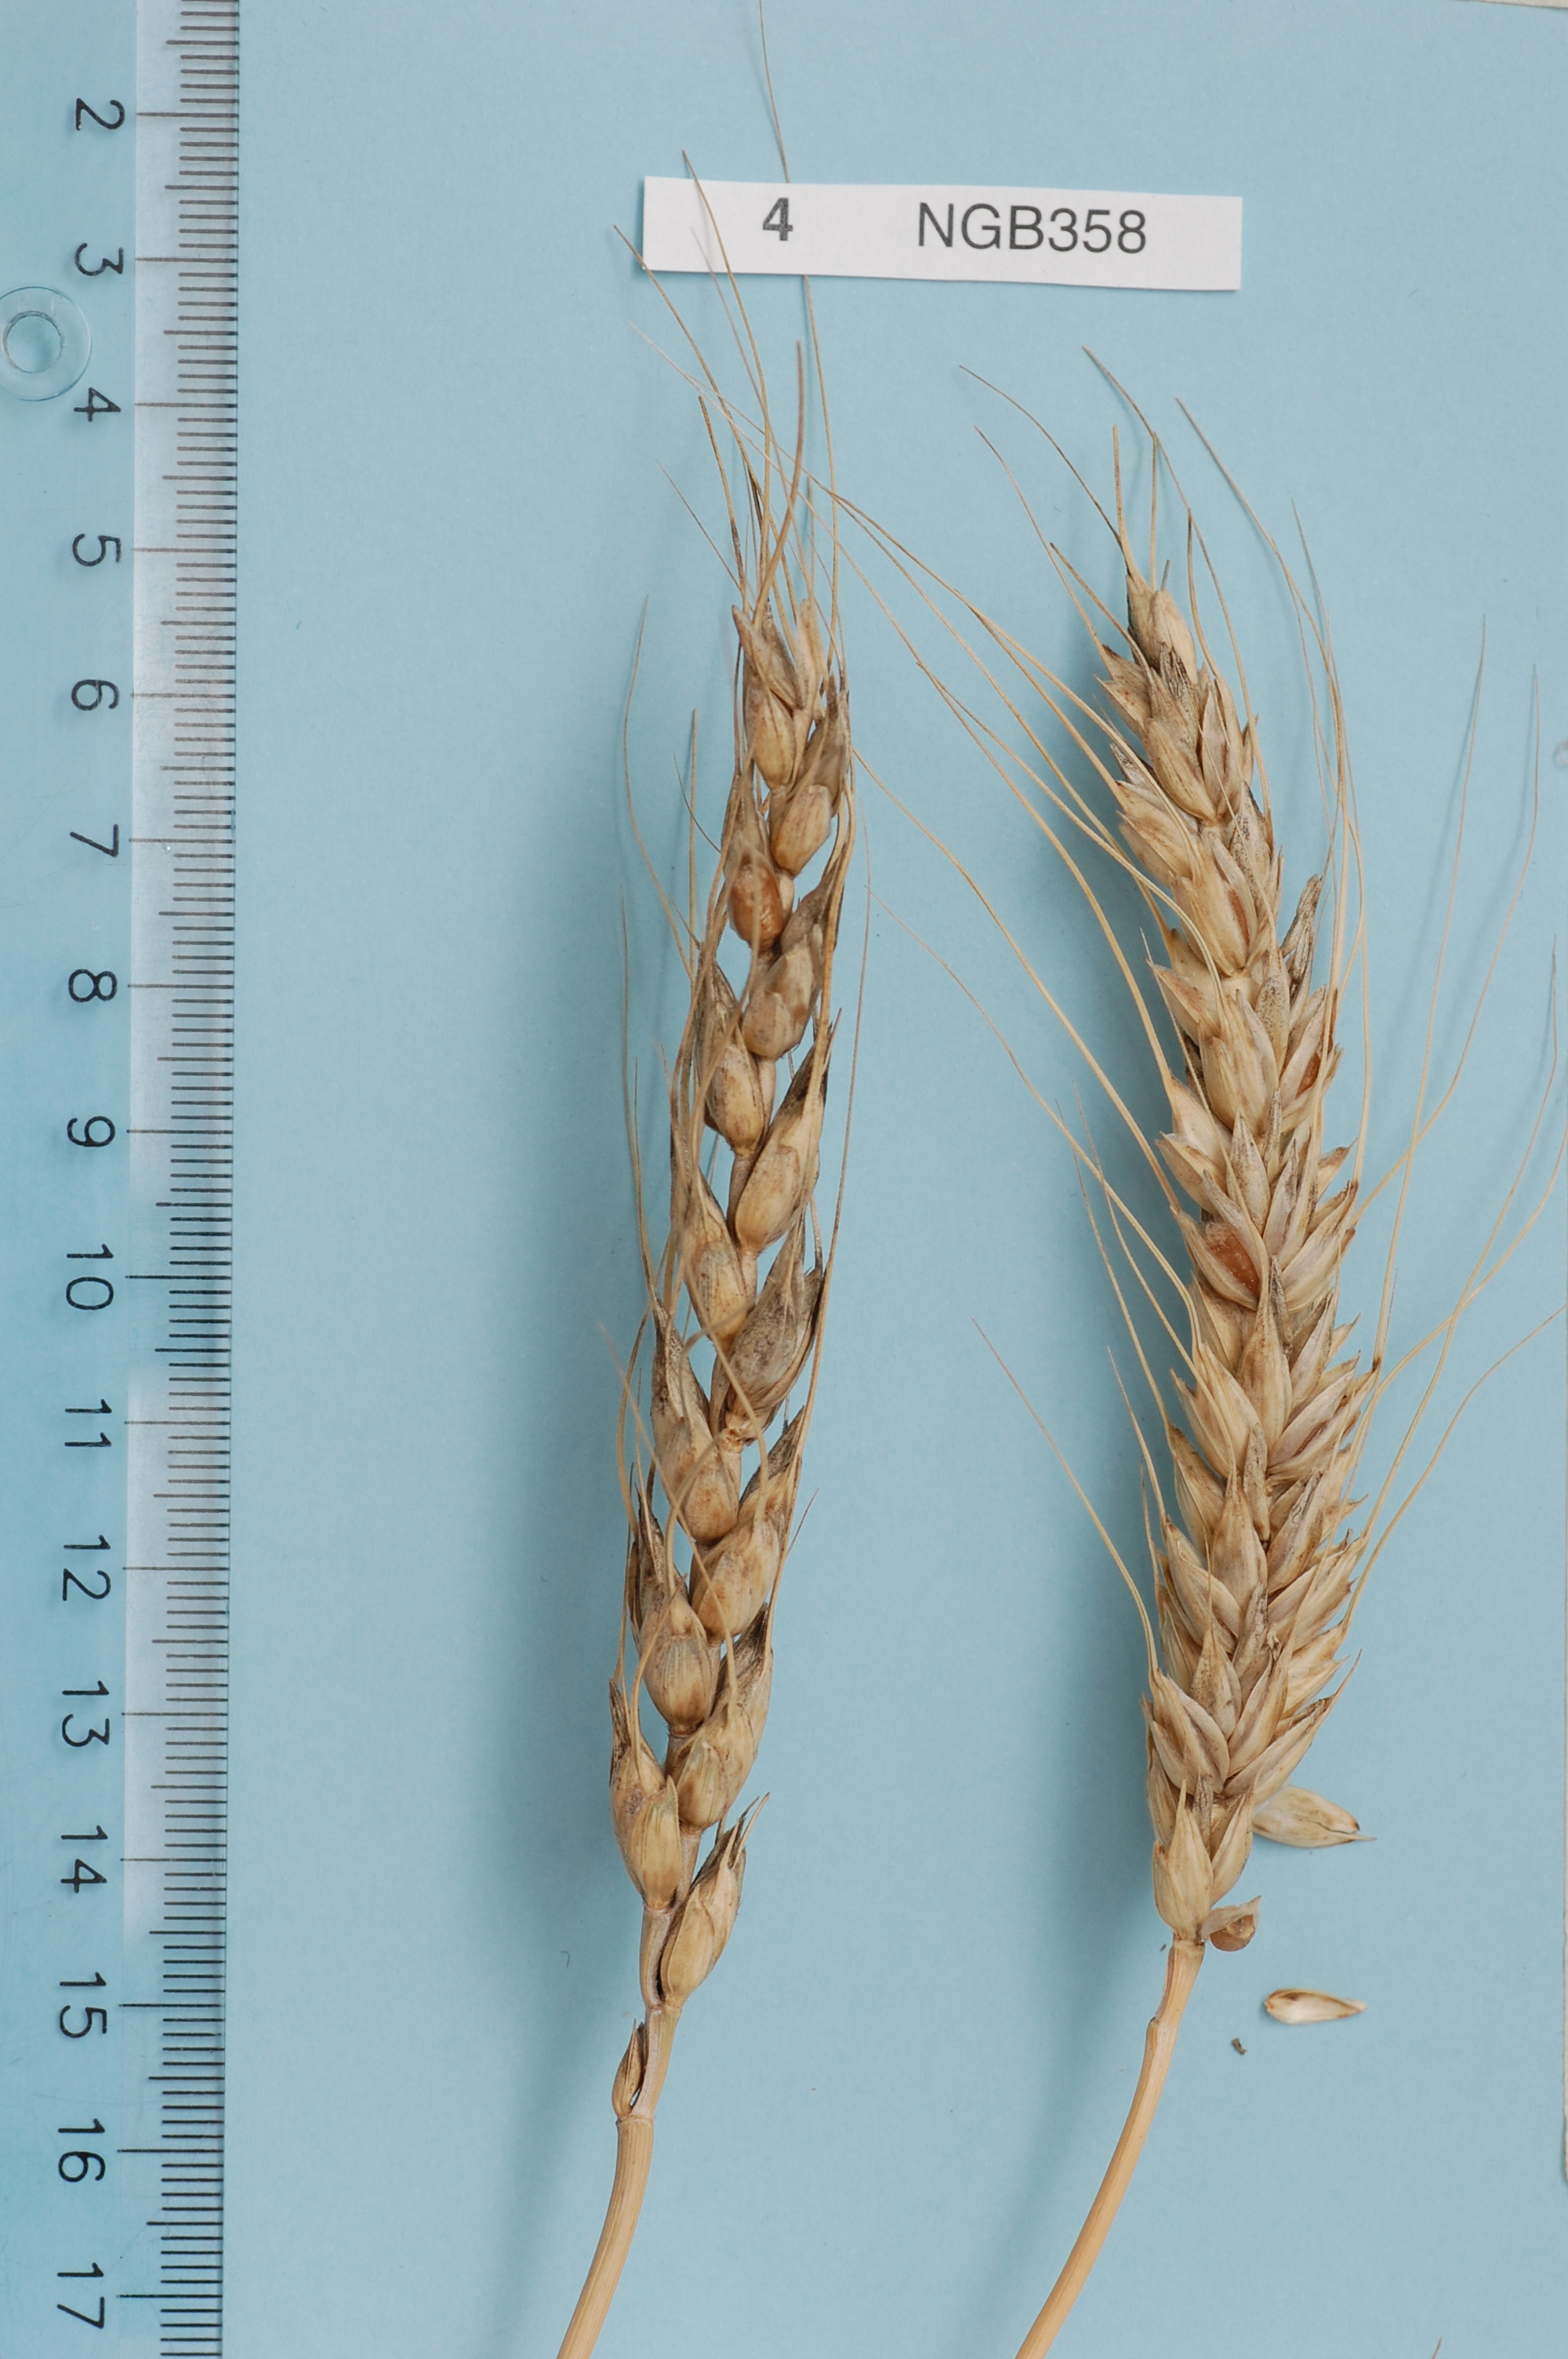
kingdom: Plantae
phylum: Tracheophyta
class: Liliopsida
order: Poales
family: Poaceae
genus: Triticum
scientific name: Triticum aestivum
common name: Common wheat
